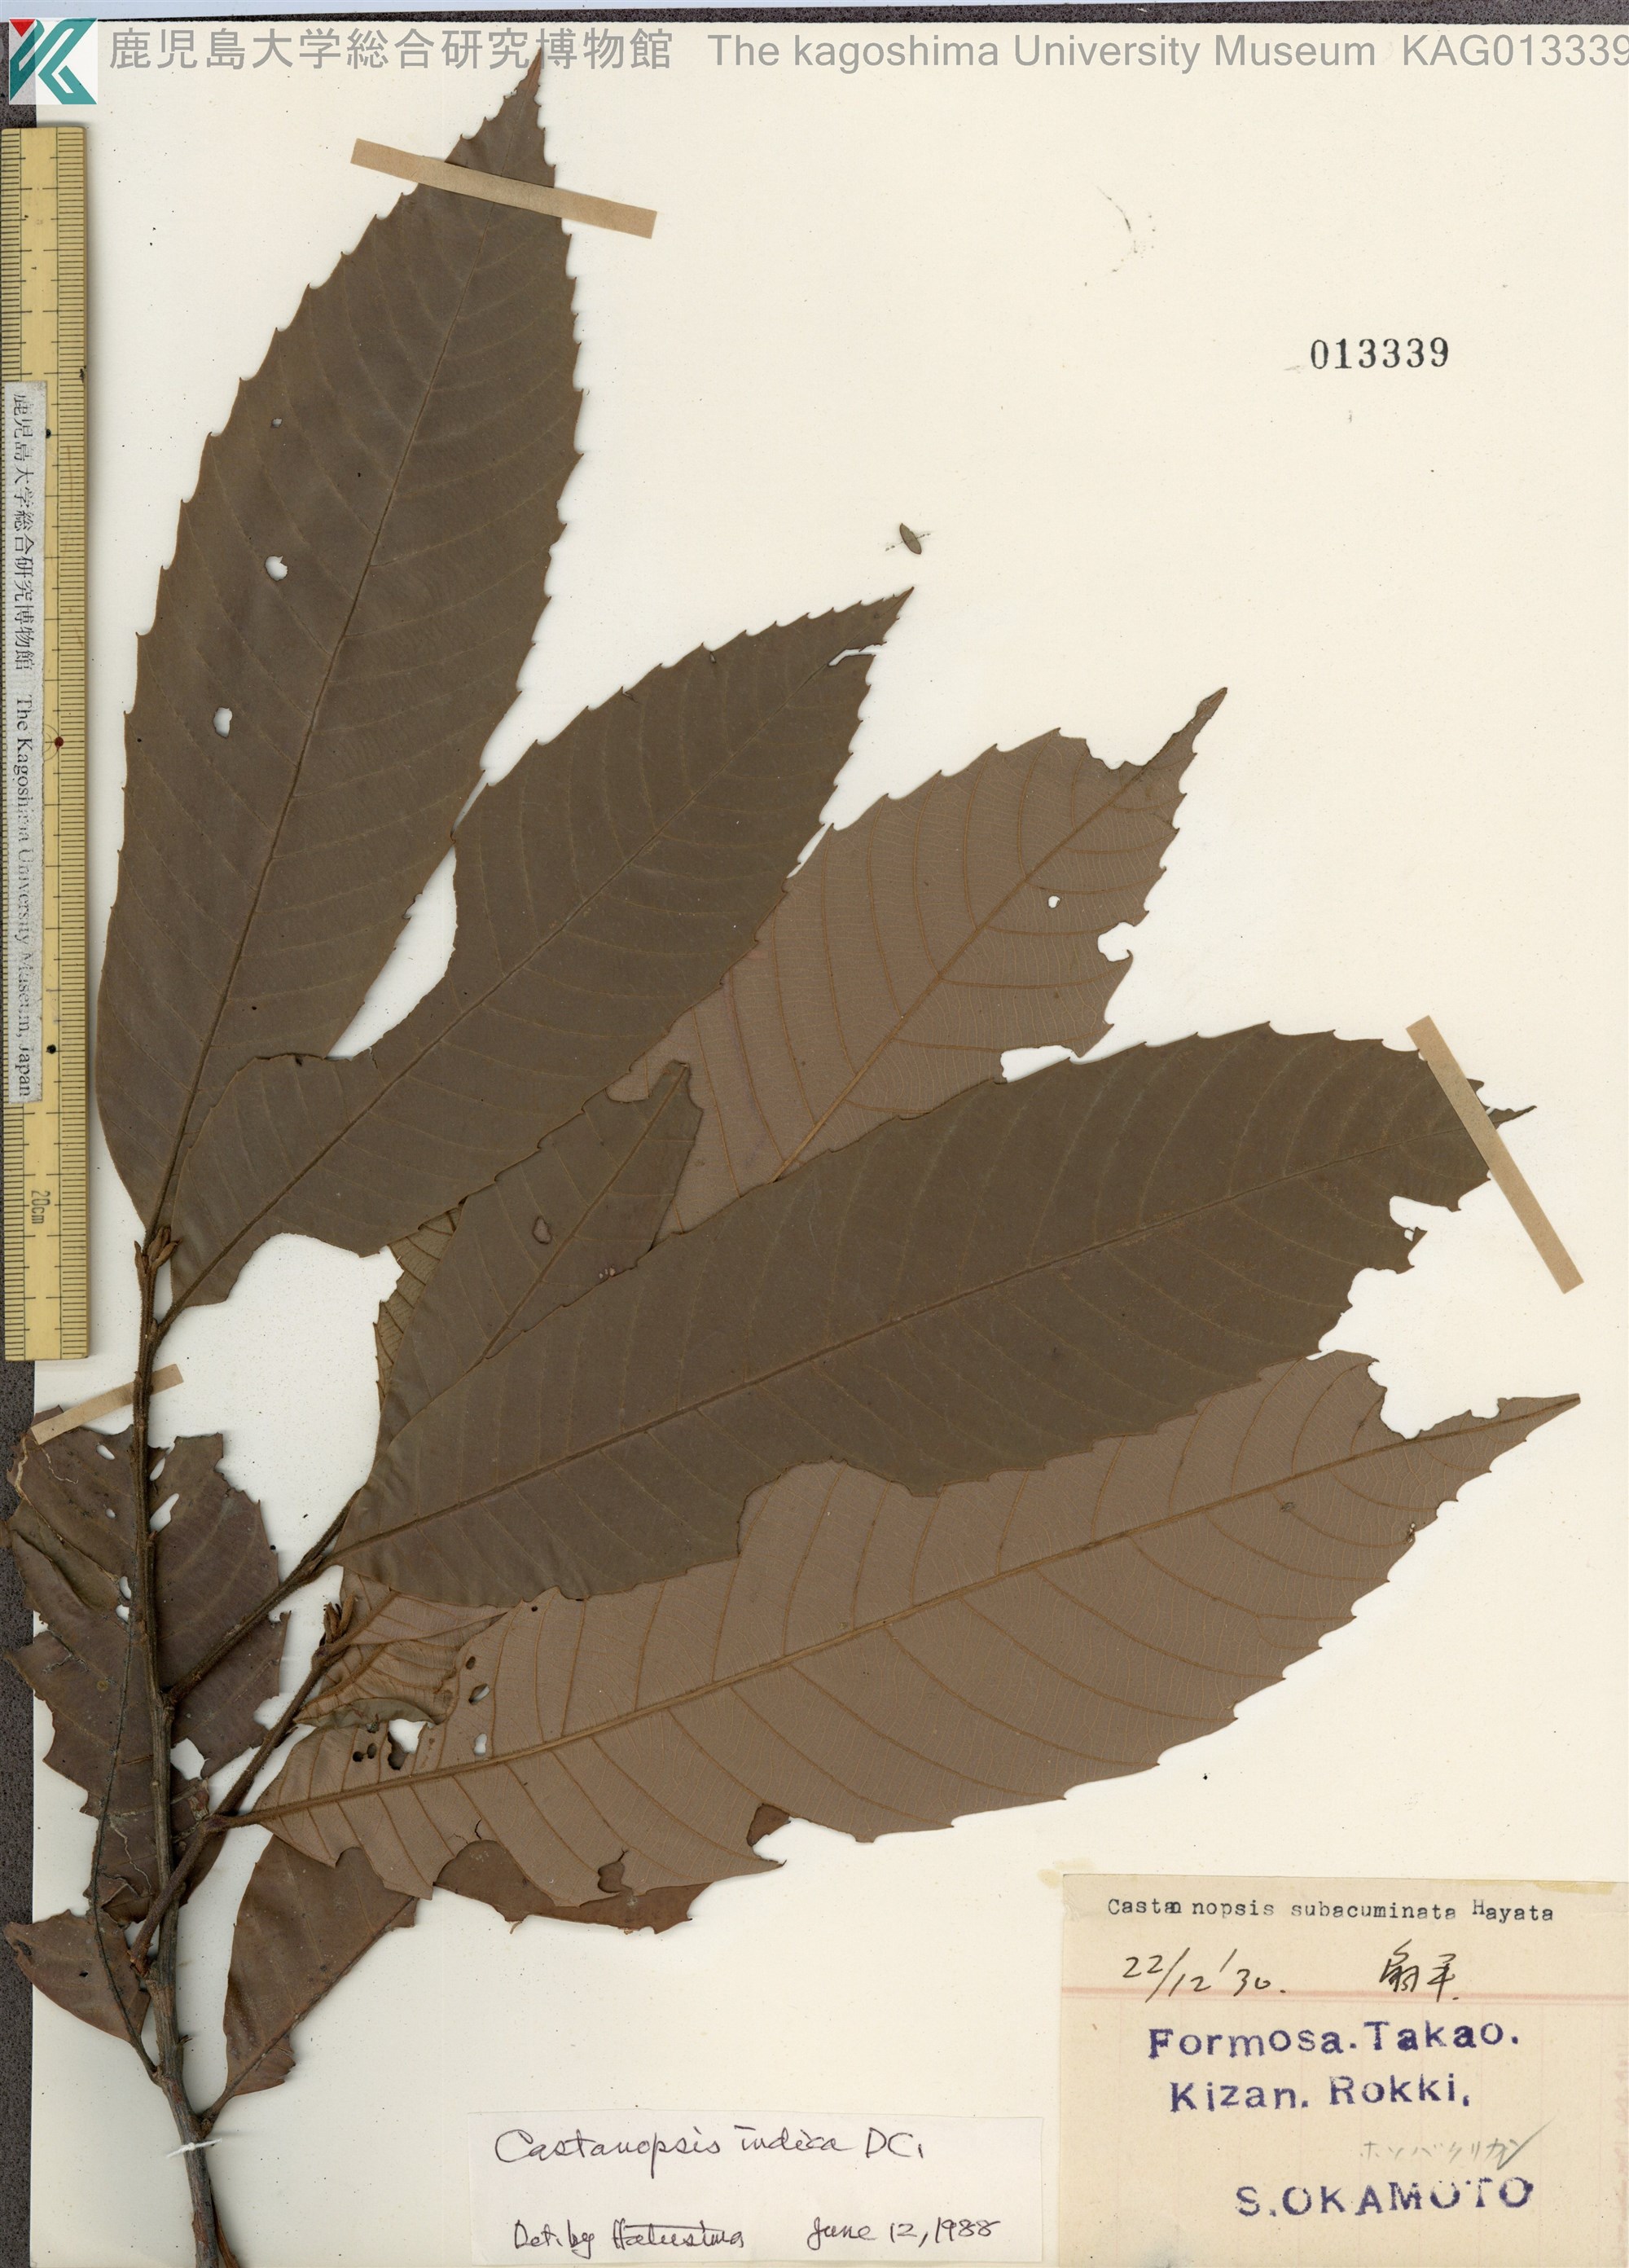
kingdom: Plantae
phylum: Tracheophyta
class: Magnoliopsida
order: Fagales
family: Fagaceae
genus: Castanopsis
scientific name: Castanopsis indica
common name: Indian-chestnut
